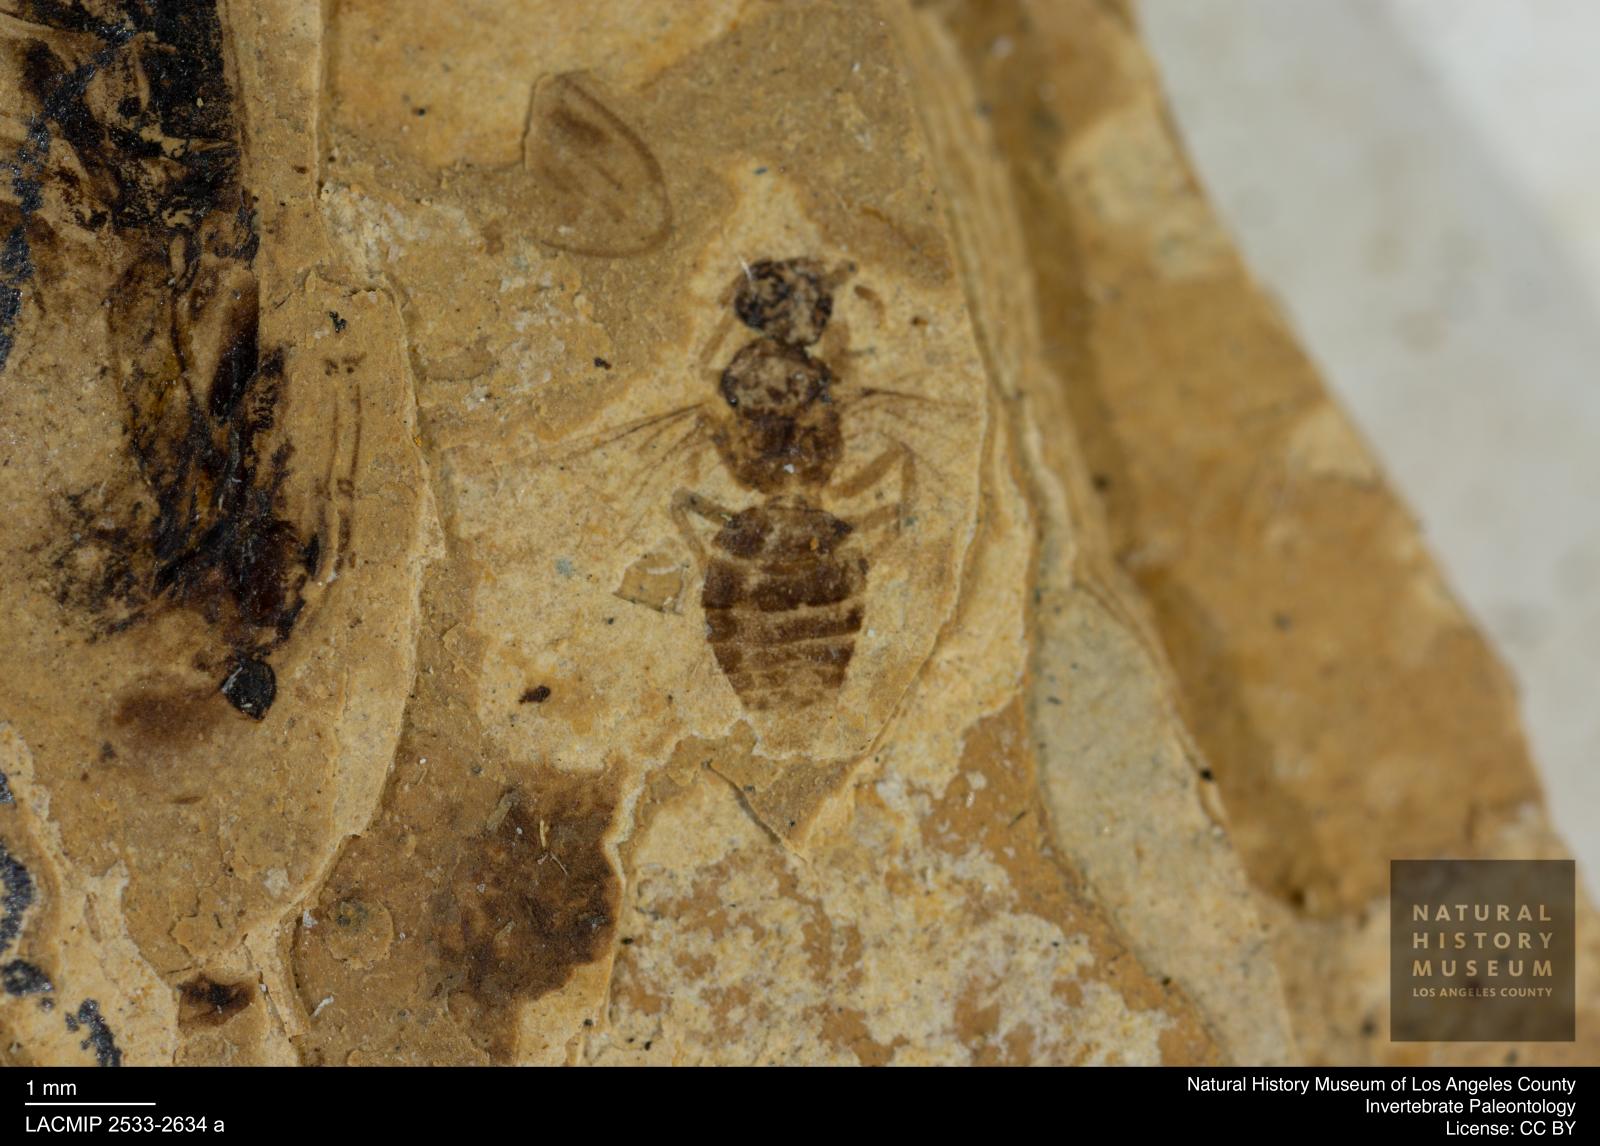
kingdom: Animalia
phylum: Arthropoda
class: Insecta
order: Hymenoptera
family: Formicidae
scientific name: Formicidae
